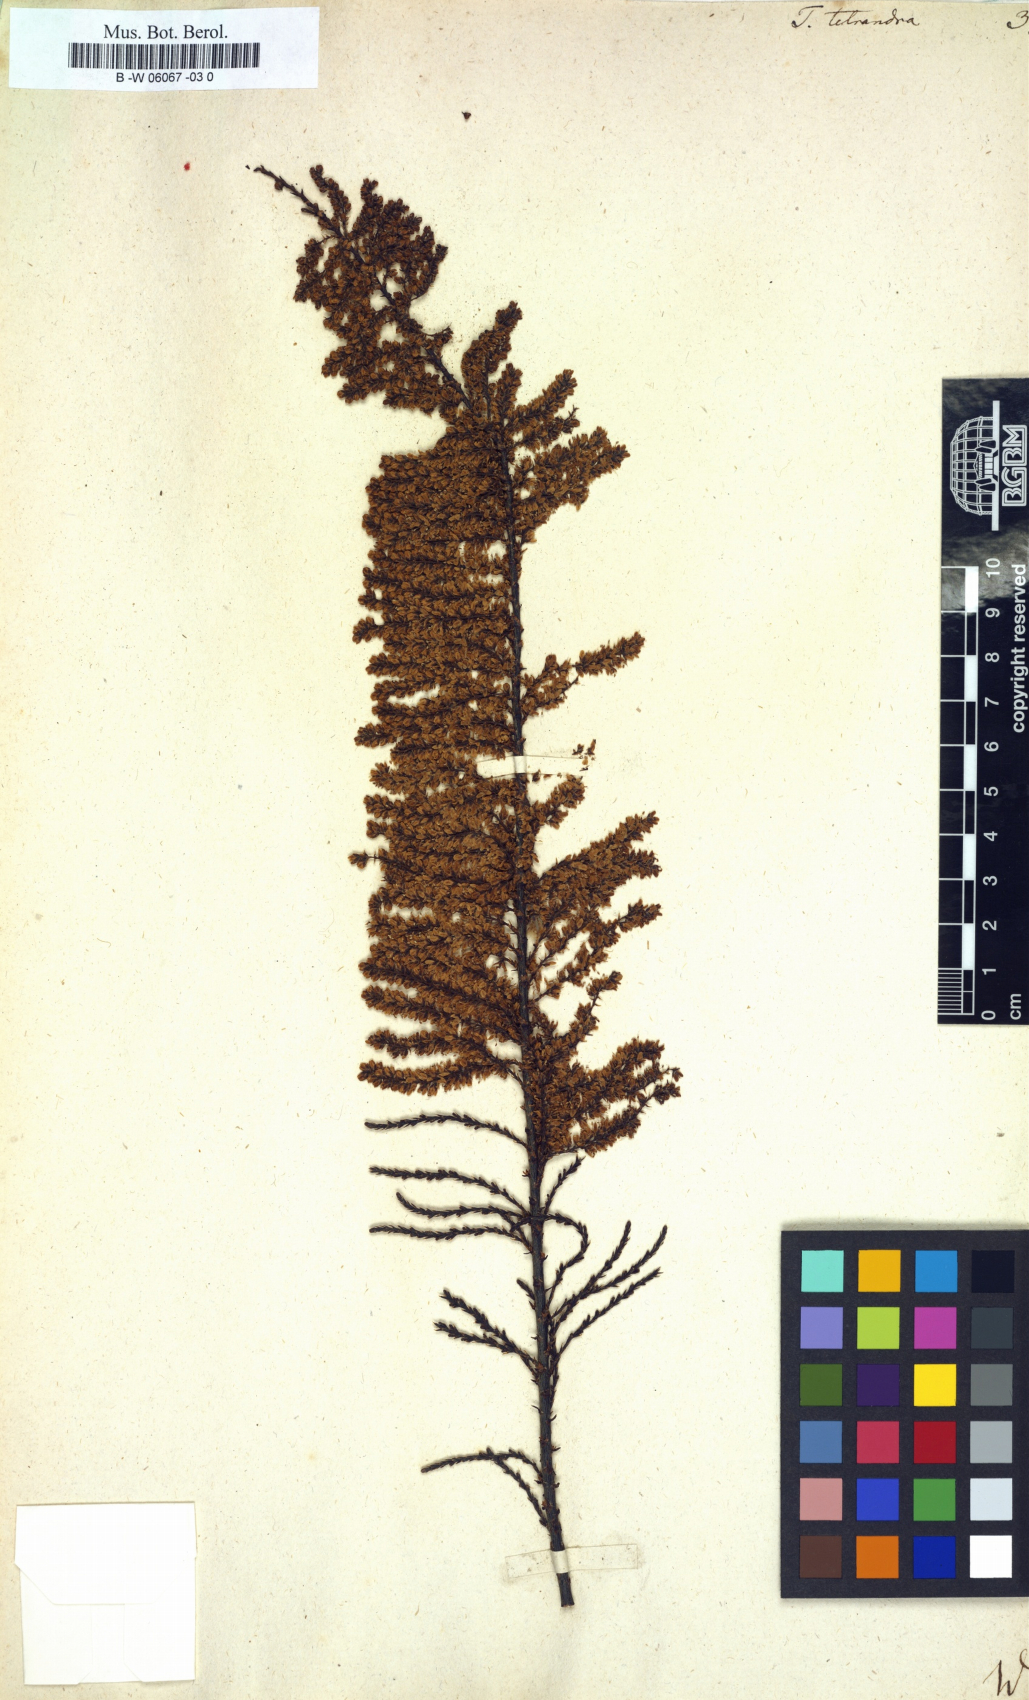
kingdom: Plantae
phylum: Tracheophyta
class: Magnoliopsida
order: Caryophyllales
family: Tamaricaceae
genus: Tamarix
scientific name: Tamarix tetrandra
